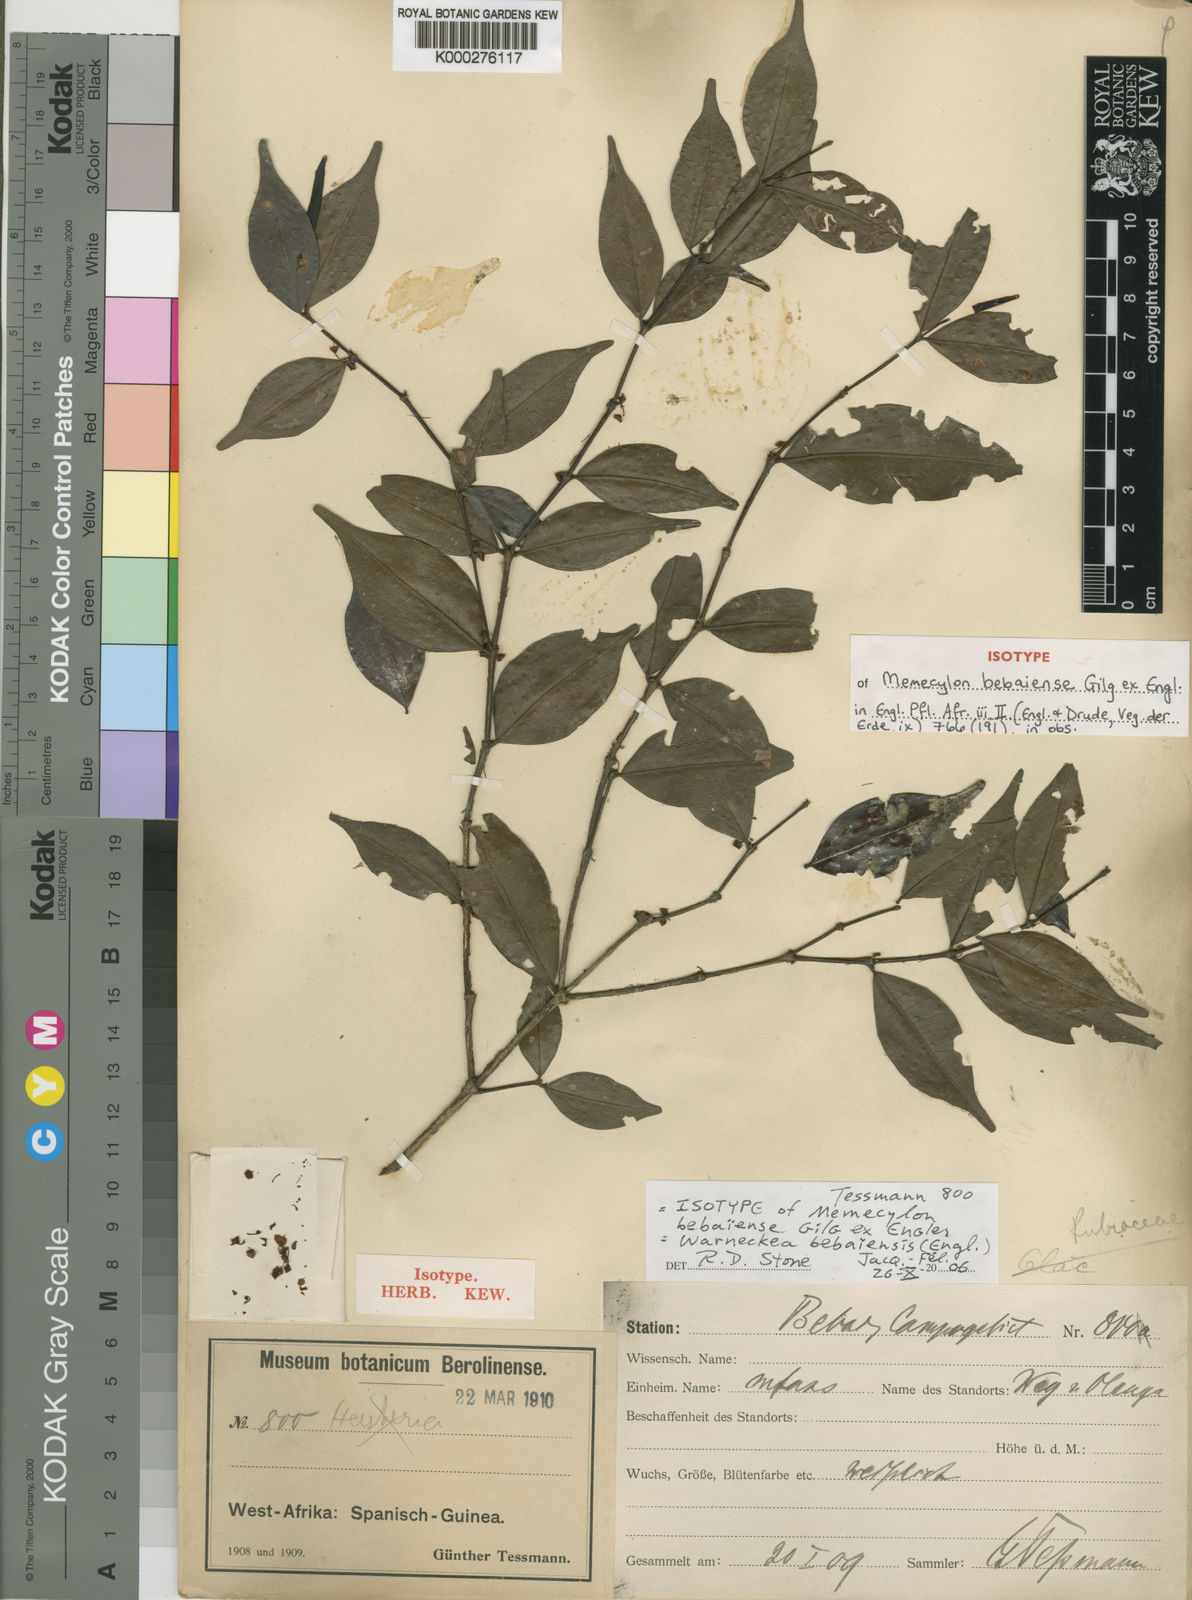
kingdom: Plantae
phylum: Tracheophyta
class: Magnoliopsida
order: Myrtales
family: Melastomataceae
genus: Warneckea
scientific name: Warneckea
